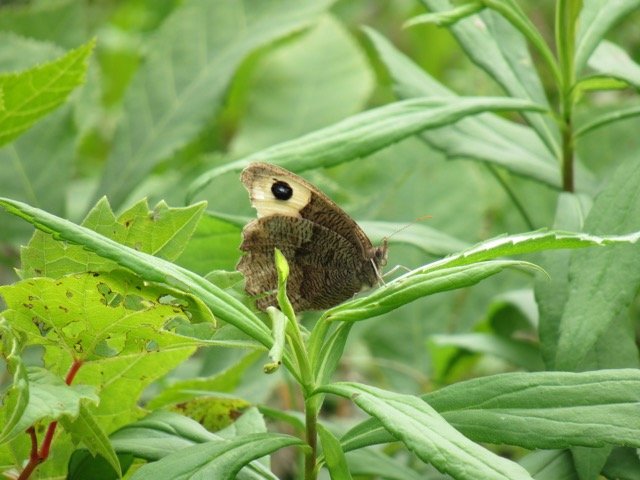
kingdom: Animalia
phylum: Arthropoda
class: Insecta
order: Lepidoptera
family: Nymphalidae
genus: Cercyonis
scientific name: Cercyonis pegala
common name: Common Wood-Nymph
